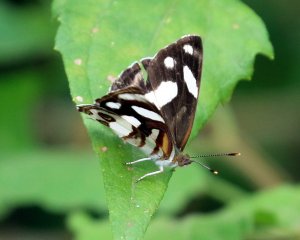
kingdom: Animalia
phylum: Arthropoda
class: Insecta
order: Lepidoptera
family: Nymphalidae
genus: Dynamine
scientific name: Dynamine dyonis
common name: Blue-eyed Sailor
